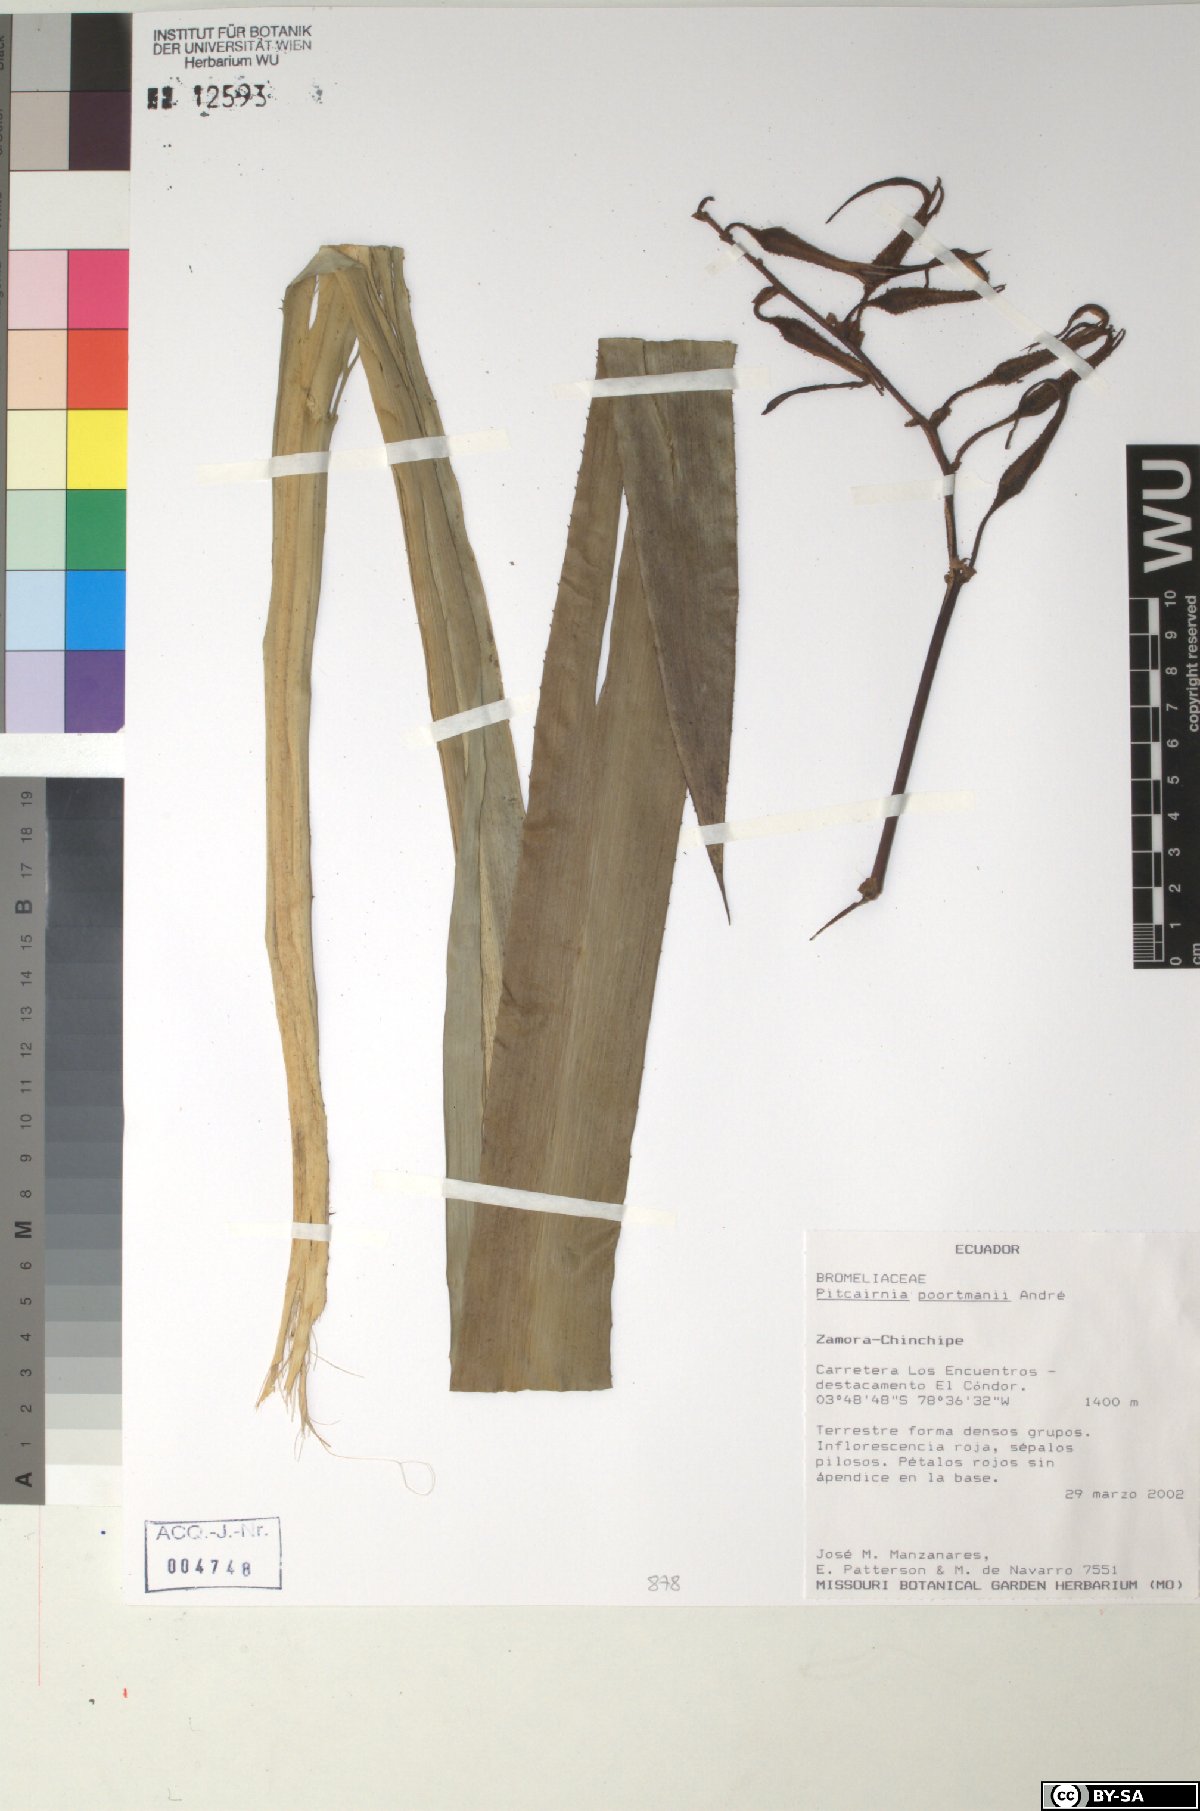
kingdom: Plantae
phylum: Tracheophyta
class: Liliopsida
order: Poales
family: Bromeliaceae
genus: Pitcairnia
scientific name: Pitcairnia poortmanii
